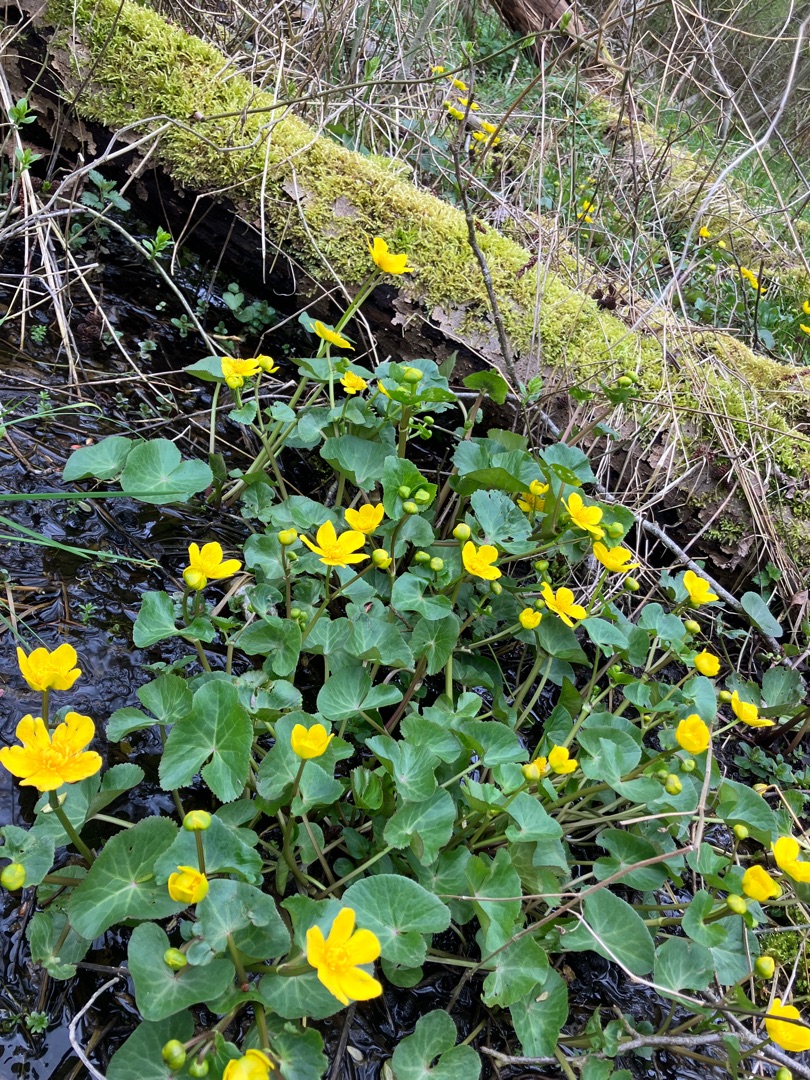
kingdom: Plantae
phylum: Tracheophyta
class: Magnoliopsida
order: Ranunculales
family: Ranunculaceae
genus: Caltha
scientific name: Caltha palustris
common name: Eng-kabbeleje
